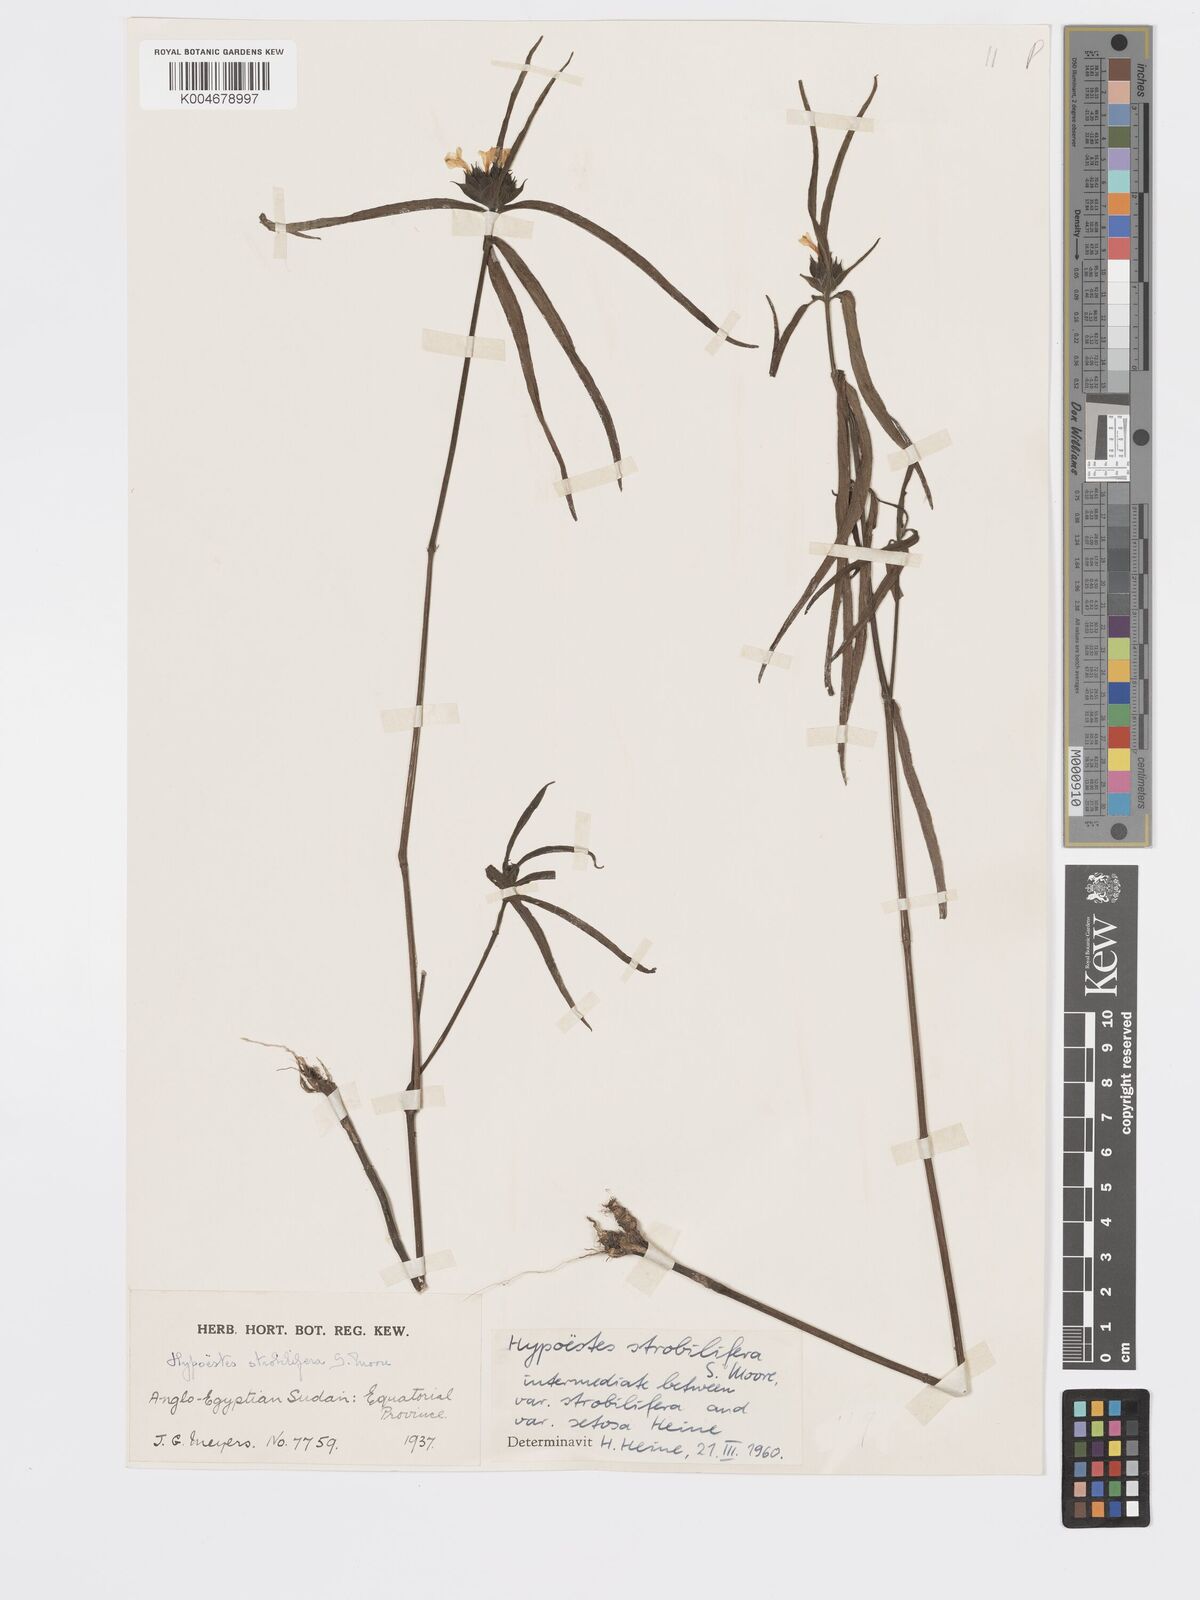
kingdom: Plantae
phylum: Tracheophyta
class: Magnoliopsida
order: Lamiales
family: Acanthaceae
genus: Hypoestes
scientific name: Hypoestes strobilifera
